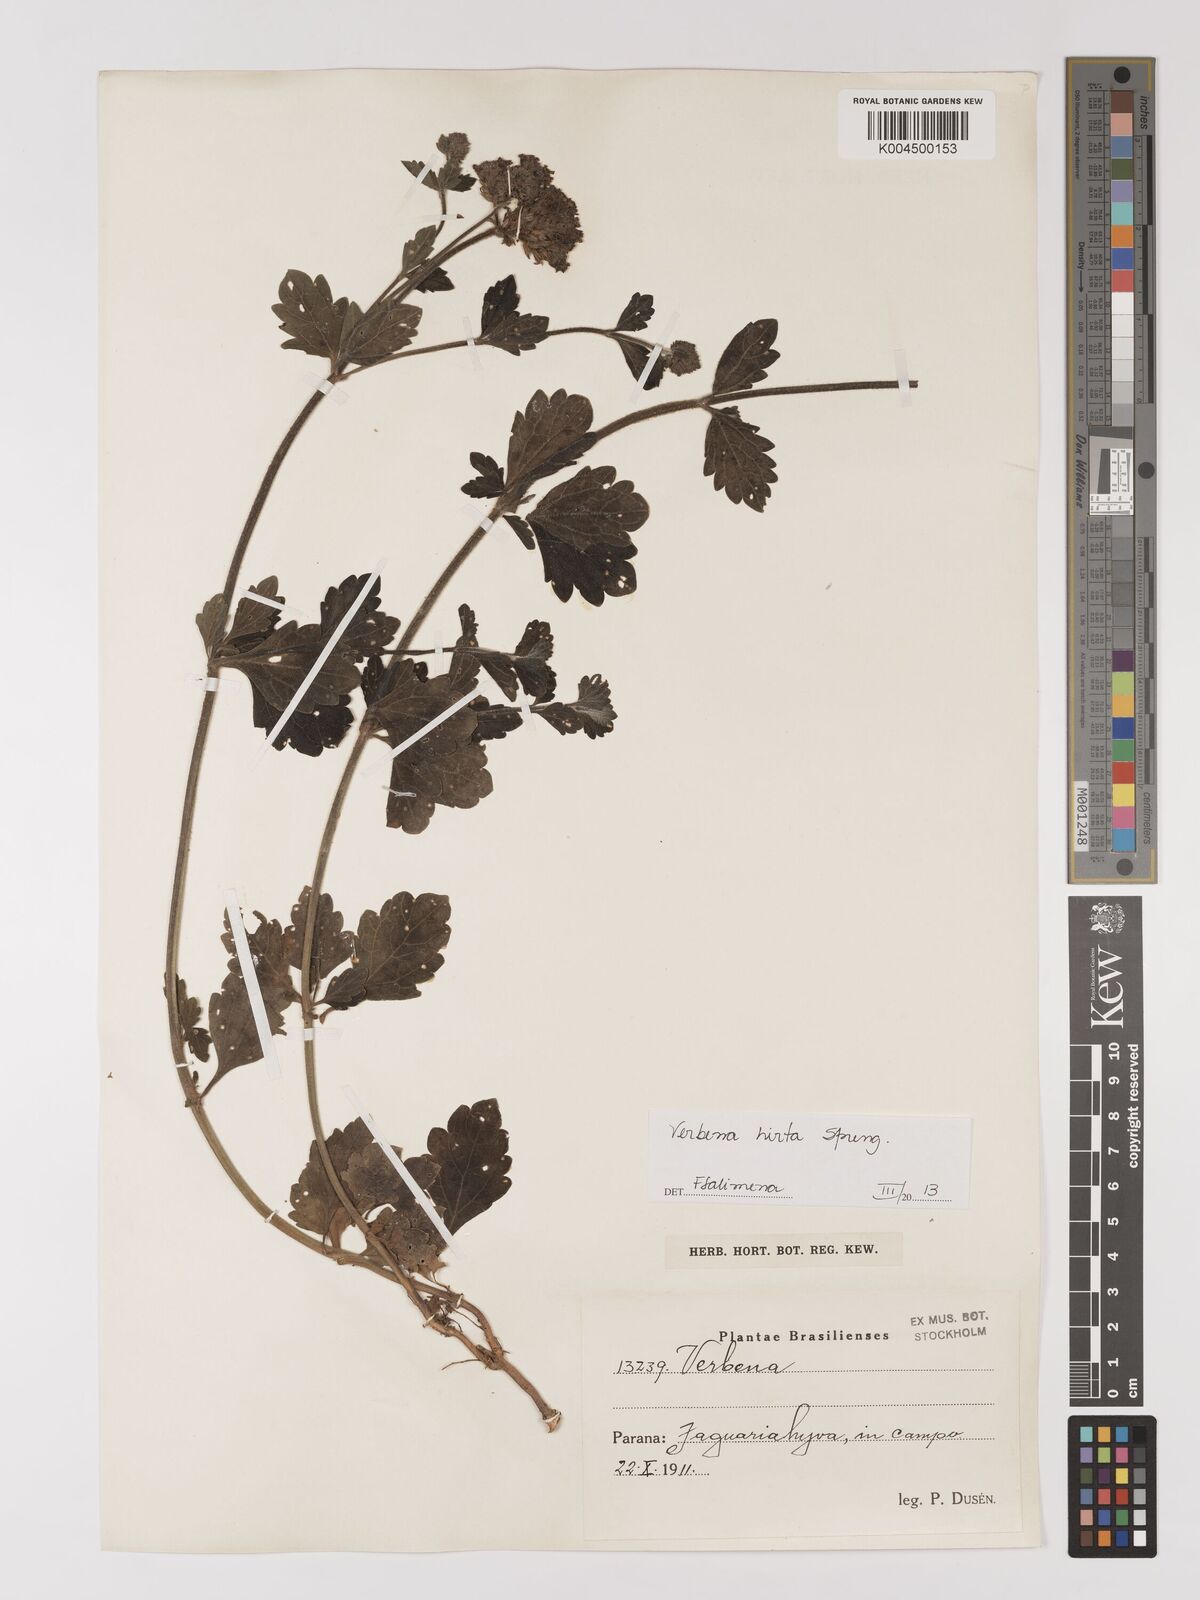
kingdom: Plantae
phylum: Tracheophyta
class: Magnoliopsida
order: Lamiales
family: Verbenaceae
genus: Verbena
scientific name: Verbena hirta
